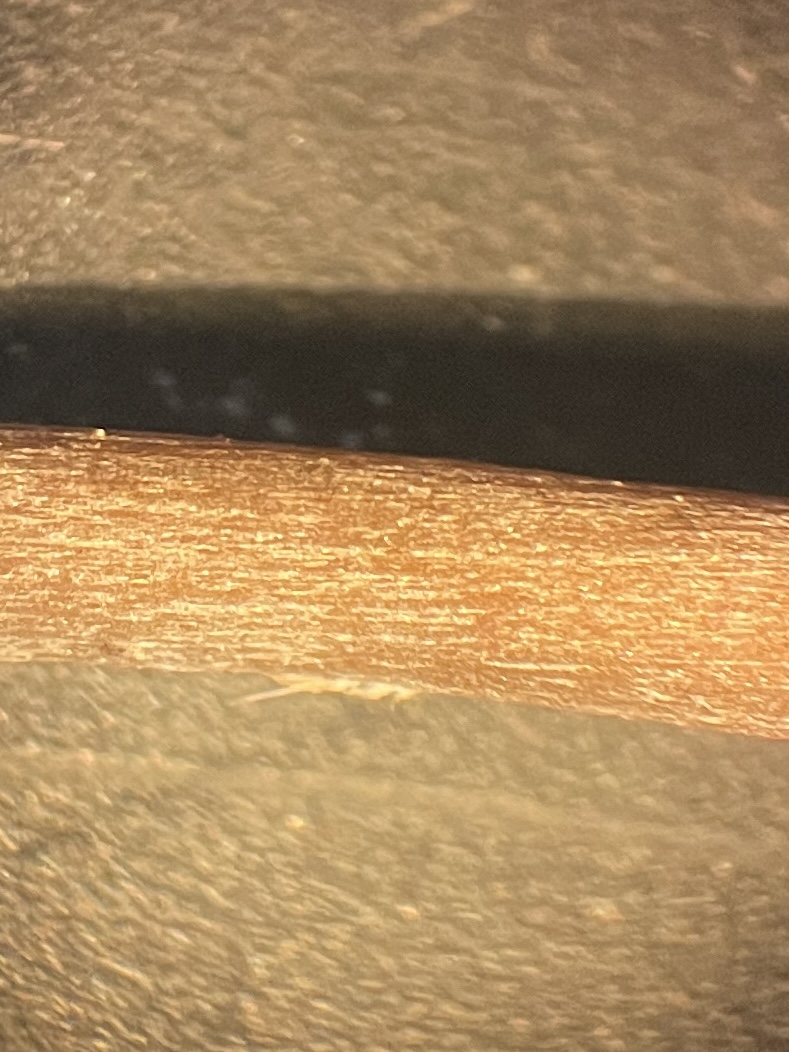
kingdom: Fungi
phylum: Basidiomycota
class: Agaricomycetes
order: Agaricales
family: Entolomataceae
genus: Entoloma
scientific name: Entoloma
